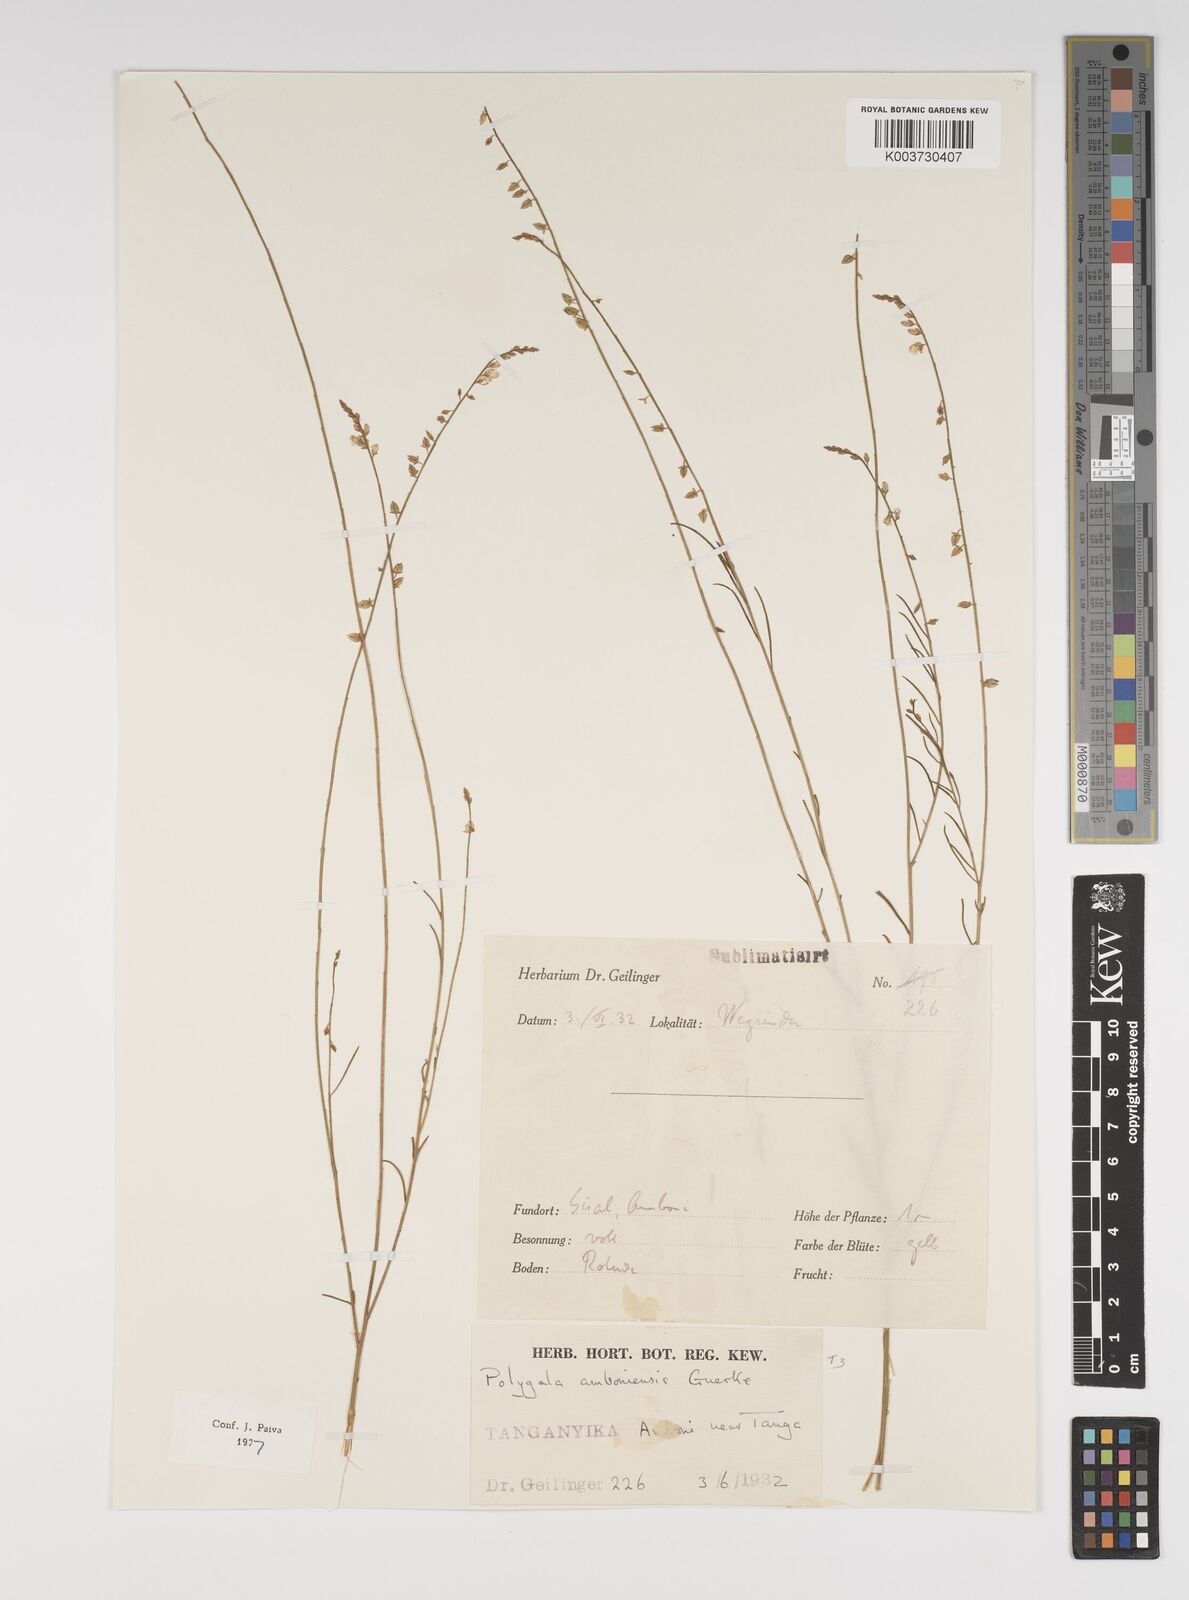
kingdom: Plantae
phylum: Tracheophyta
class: Magnoliopsida
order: Fabales
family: Polygalaceae
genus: Polygala
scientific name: Polygala amboniensis
